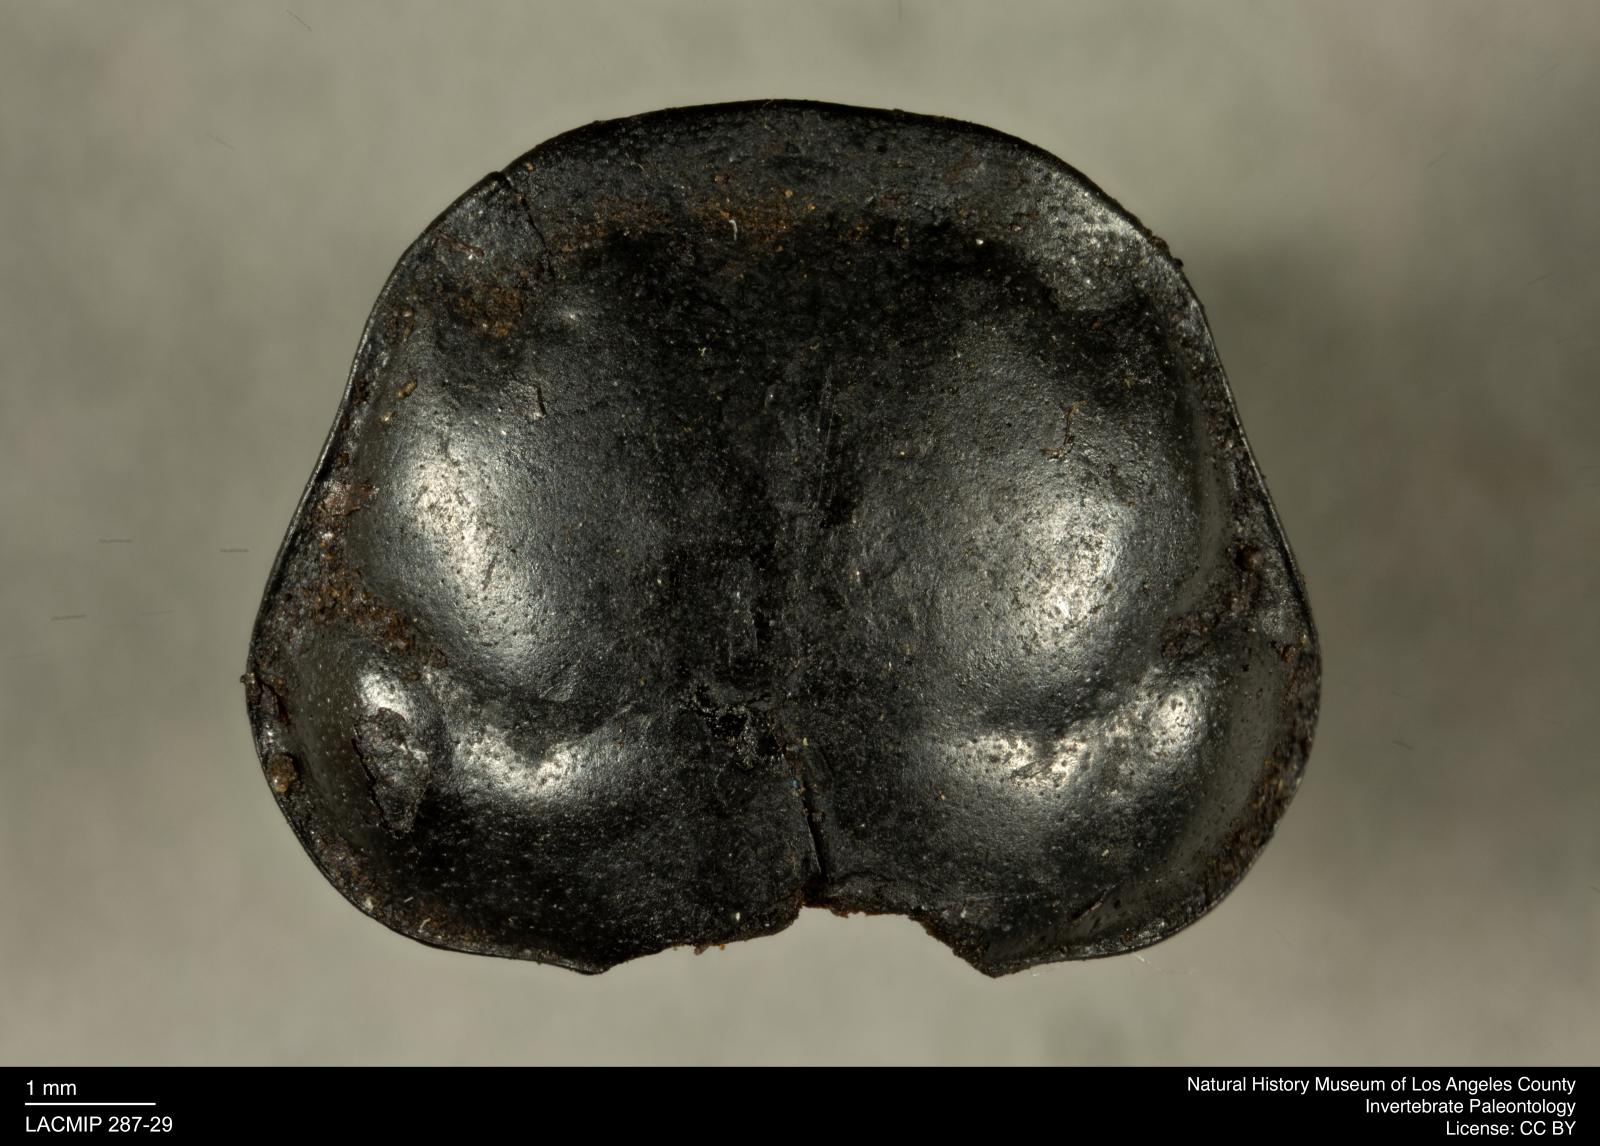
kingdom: Animalia
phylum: Arthropoda
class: Insecta
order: Coleoptera
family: Staphylinidae
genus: Nicrophorus
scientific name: Nicrophorus marginatus
